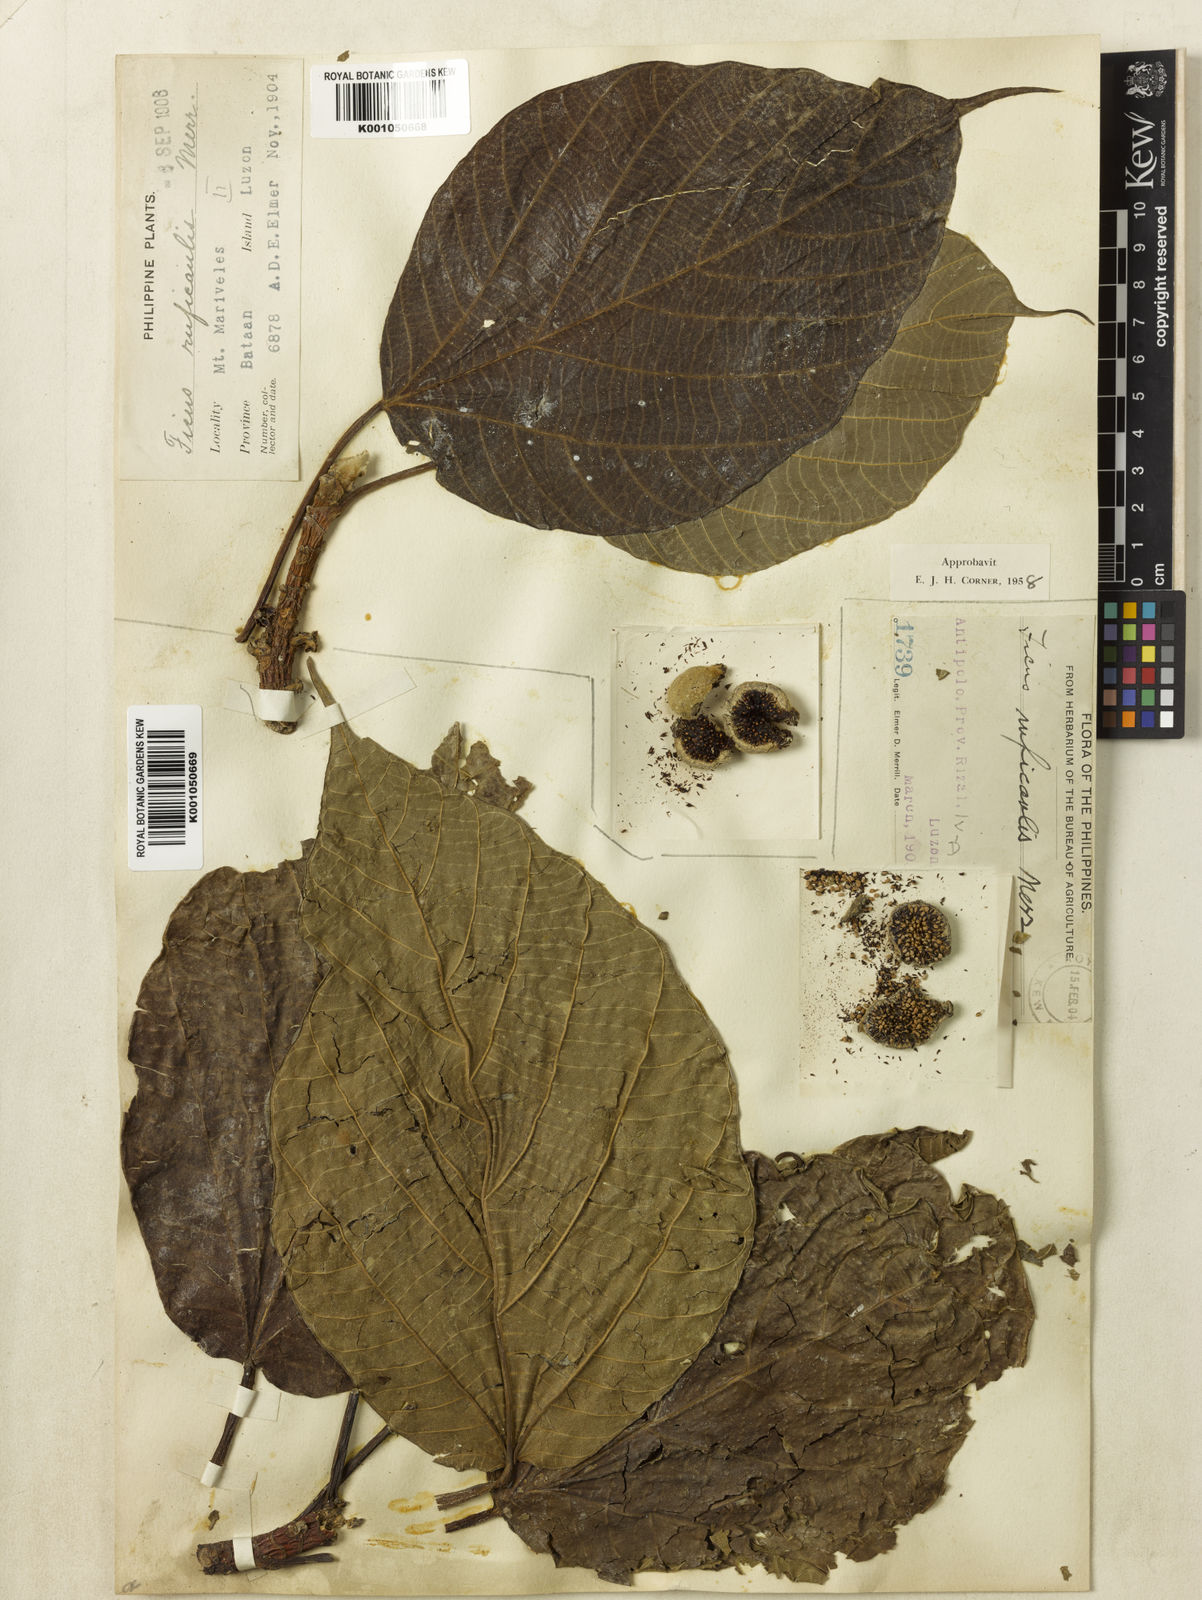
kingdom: Plantae
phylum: Tracheophyta
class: Magnoliopsida
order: Rosales
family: Moraceae
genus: Ficus
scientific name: Ficus ruficaulis
